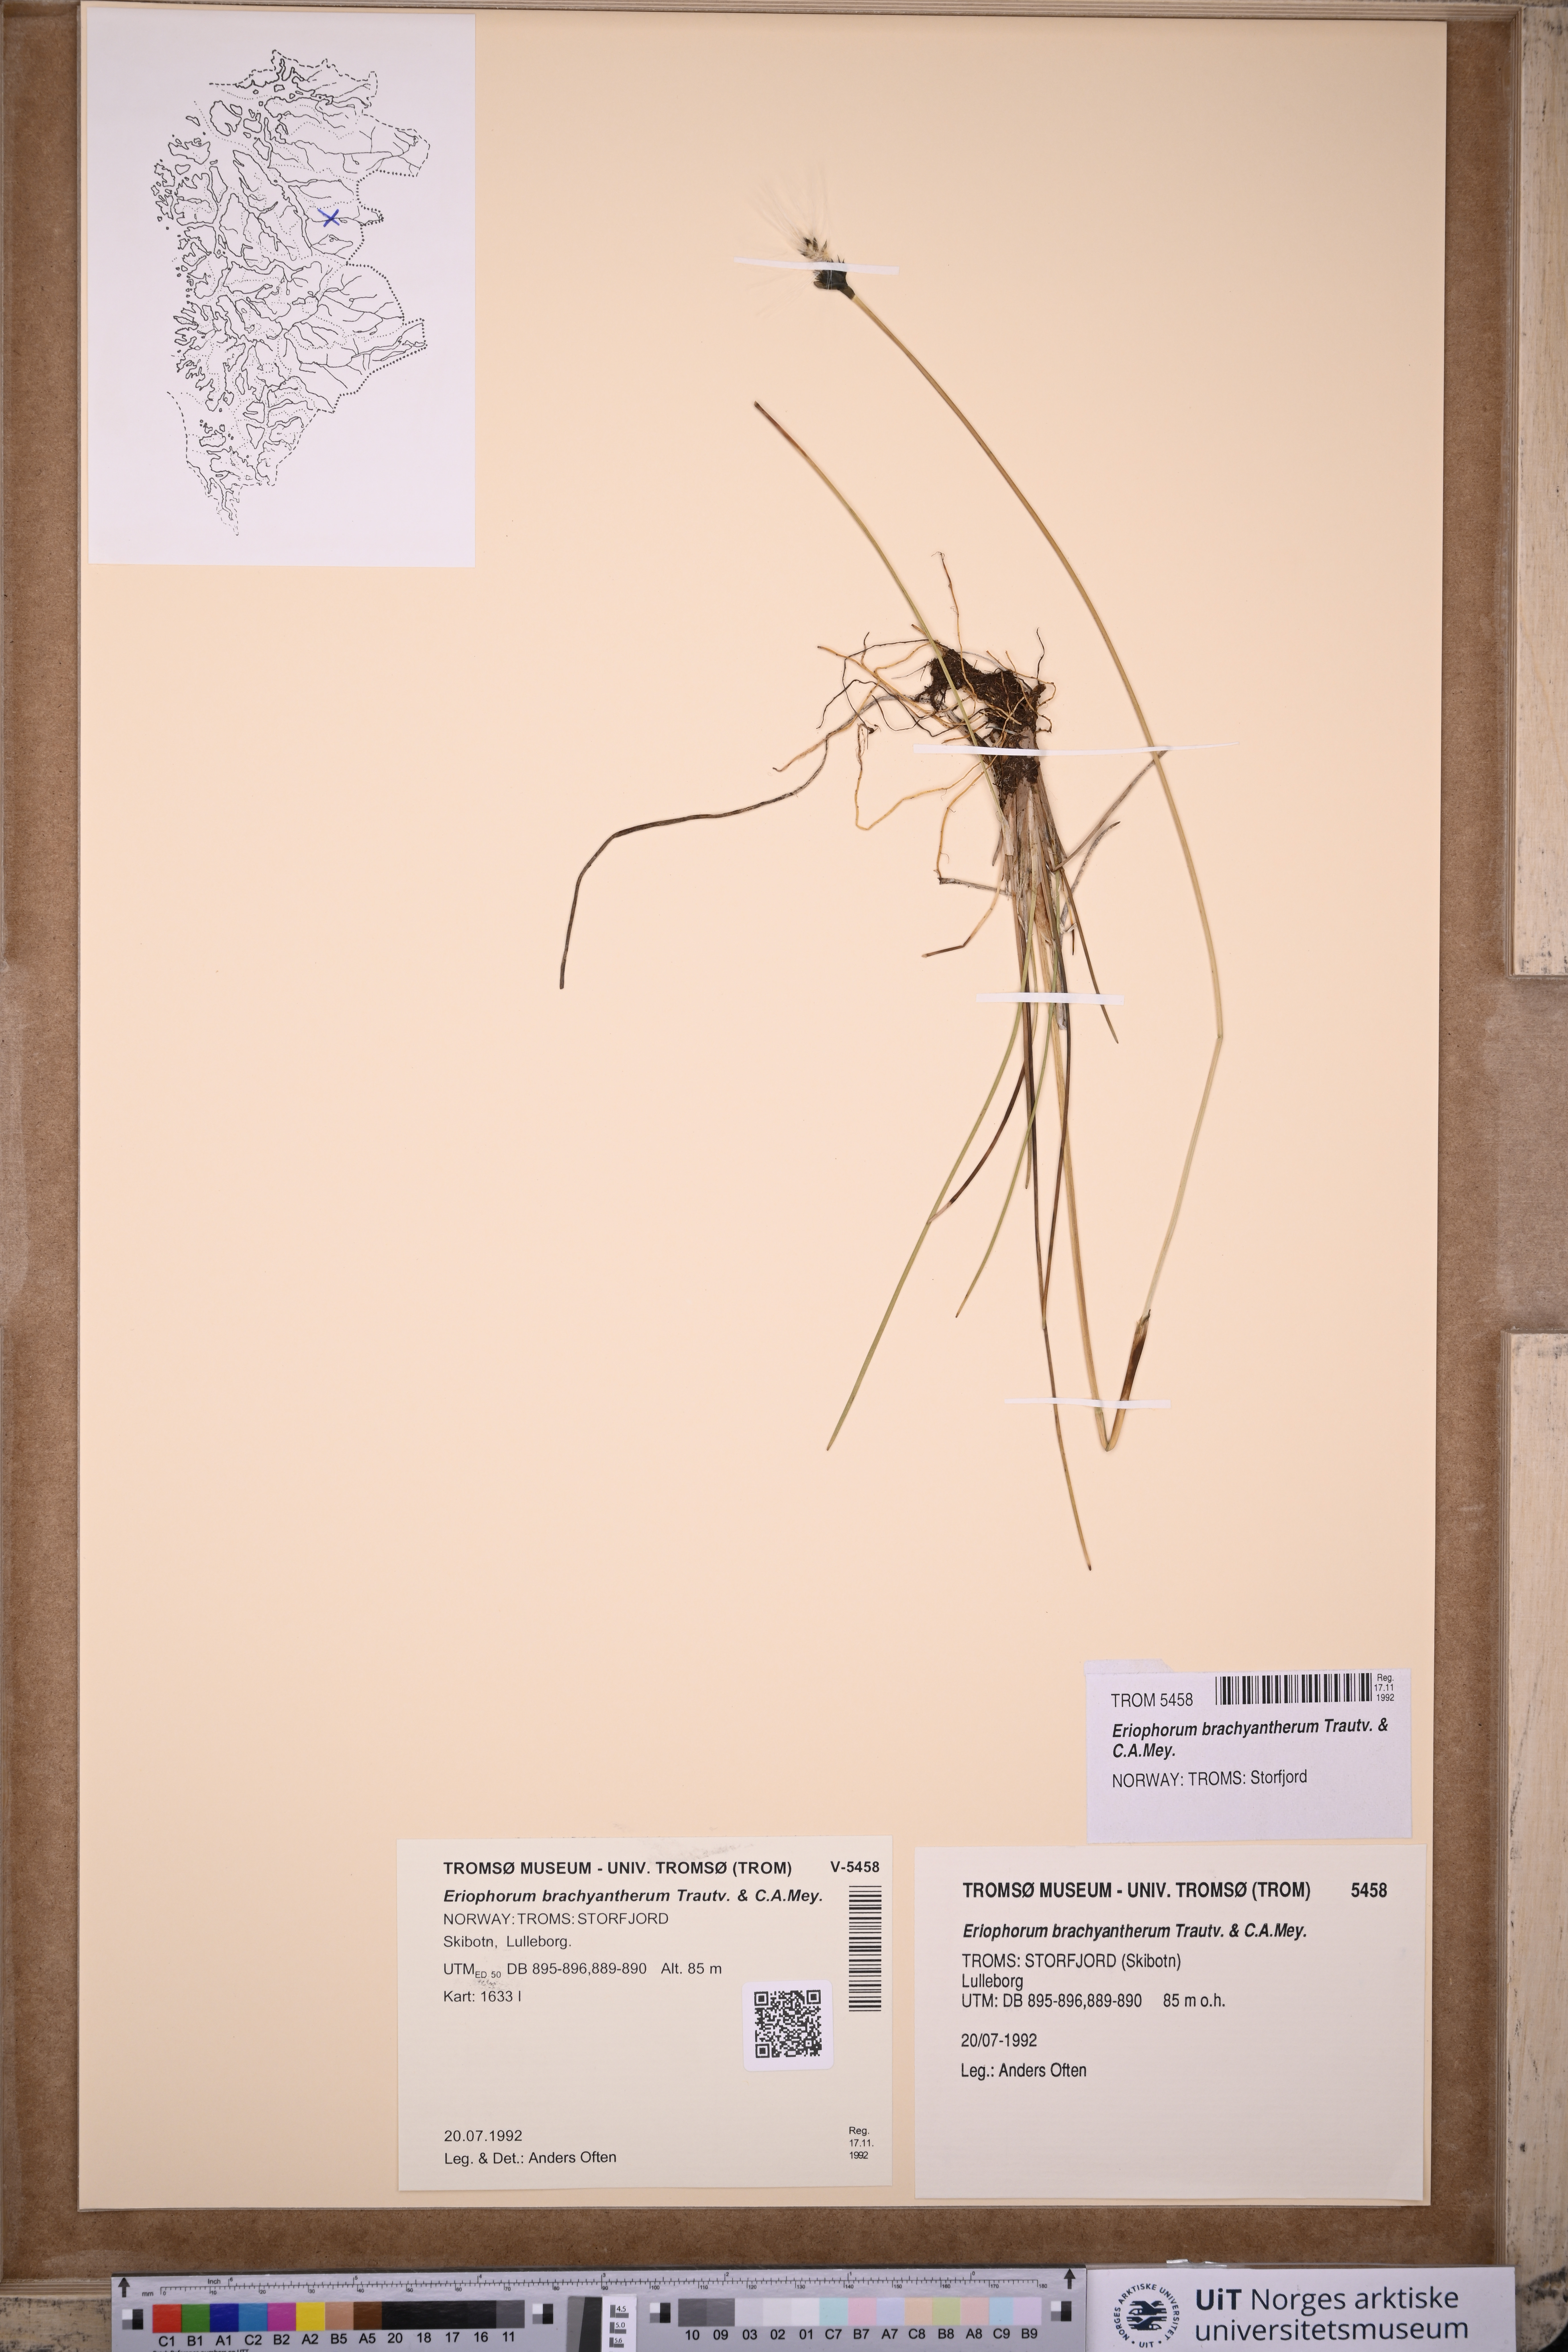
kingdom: Plantae
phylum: Tracheophyta
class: Liliopsida
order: Poales
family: Cyperaceae
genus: Eriophorum
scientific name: Eriophorum brachyantherum
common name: Closed-sheathed cottongrass
